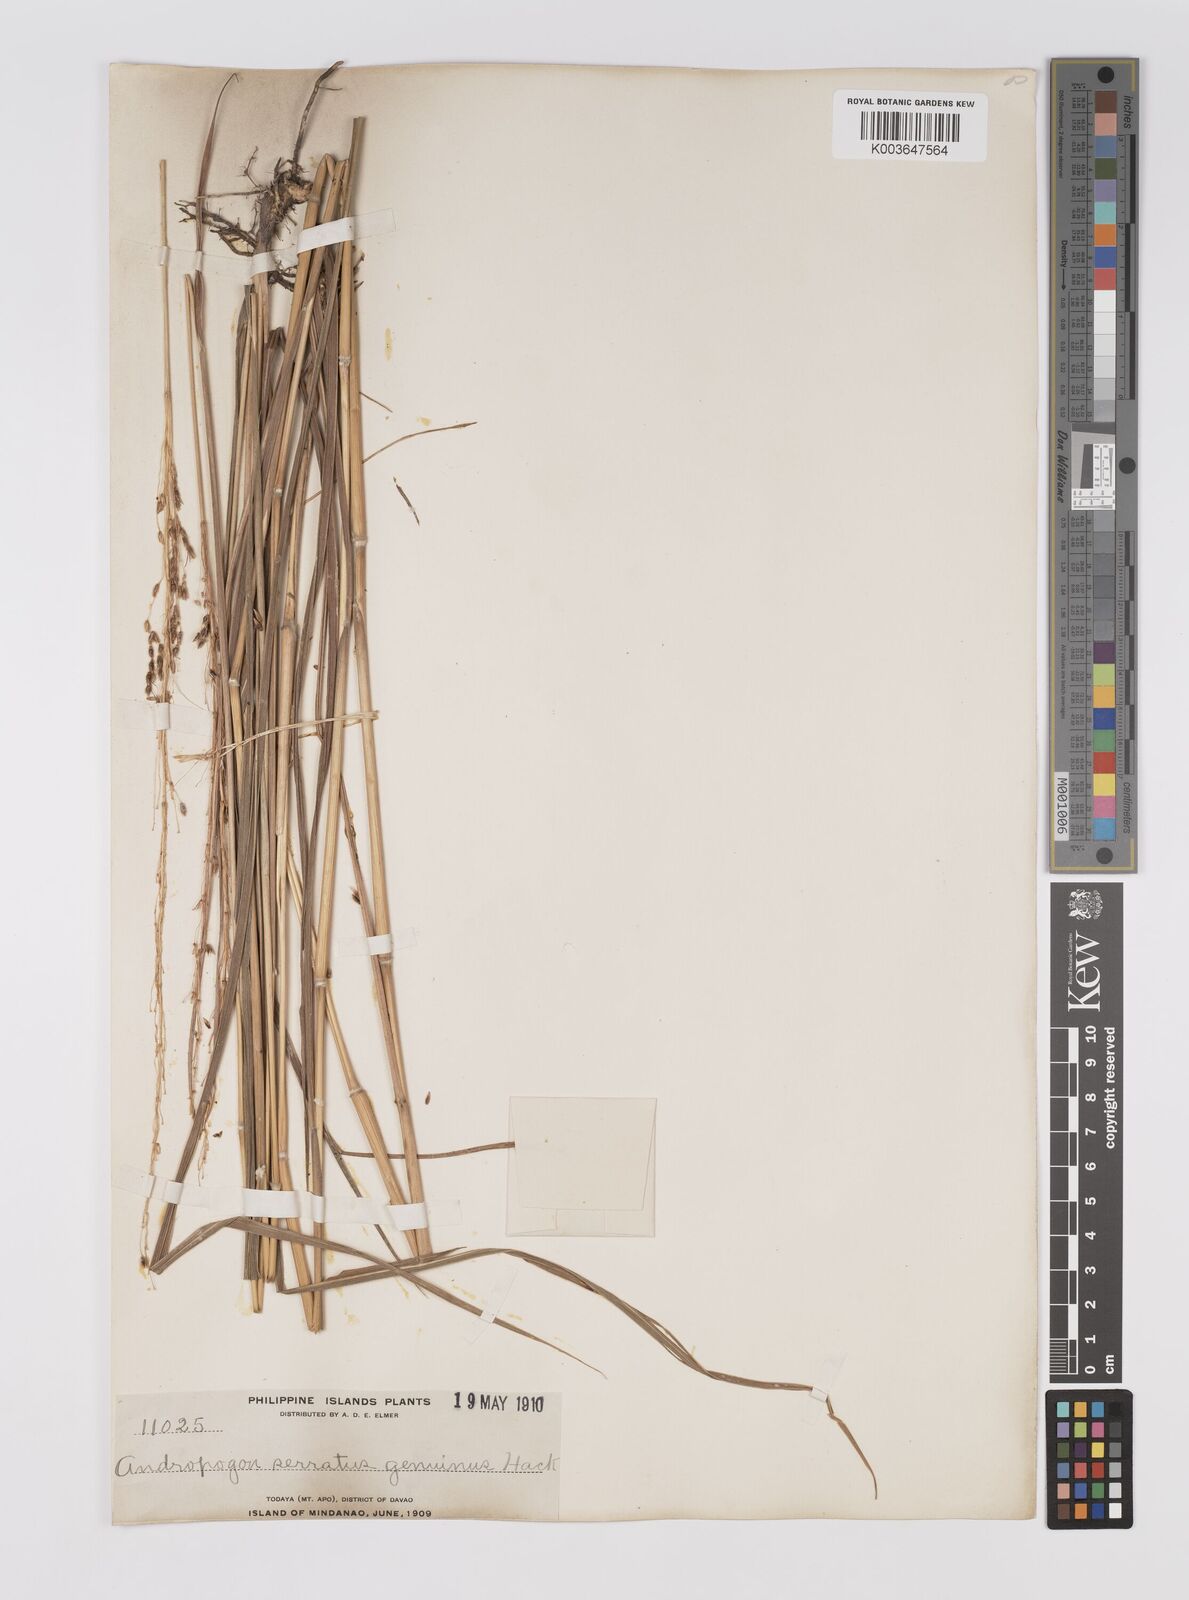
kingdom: Plantae
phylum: Tracheophyta
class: Liliopsida
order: Poales
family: Poaceae
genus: Sorghum
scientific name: Sorghum nitidum
